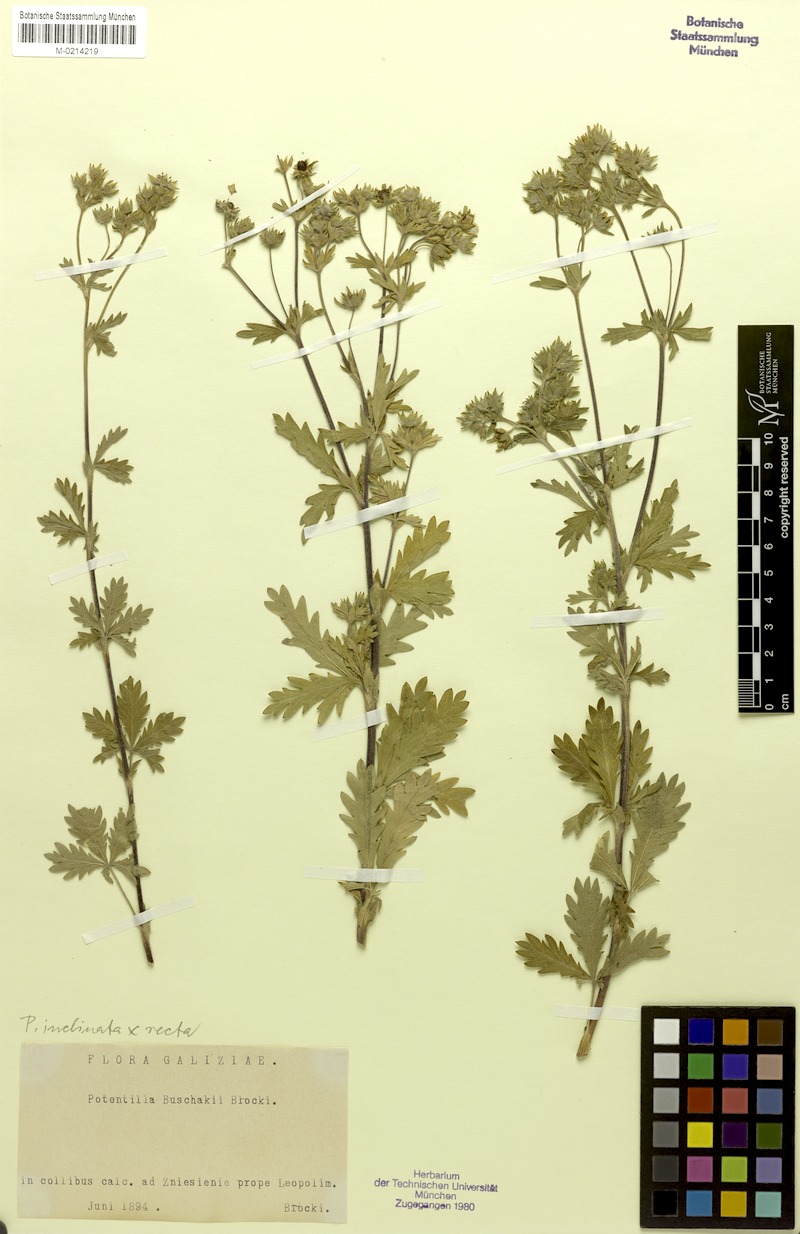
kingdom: Plantae
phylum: Tracheophyta
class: Magnoliopsida
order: Rosales
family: Rosaceae
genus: Potentilla
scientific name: Potentilla inclinata
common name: Grey cinquefoil
